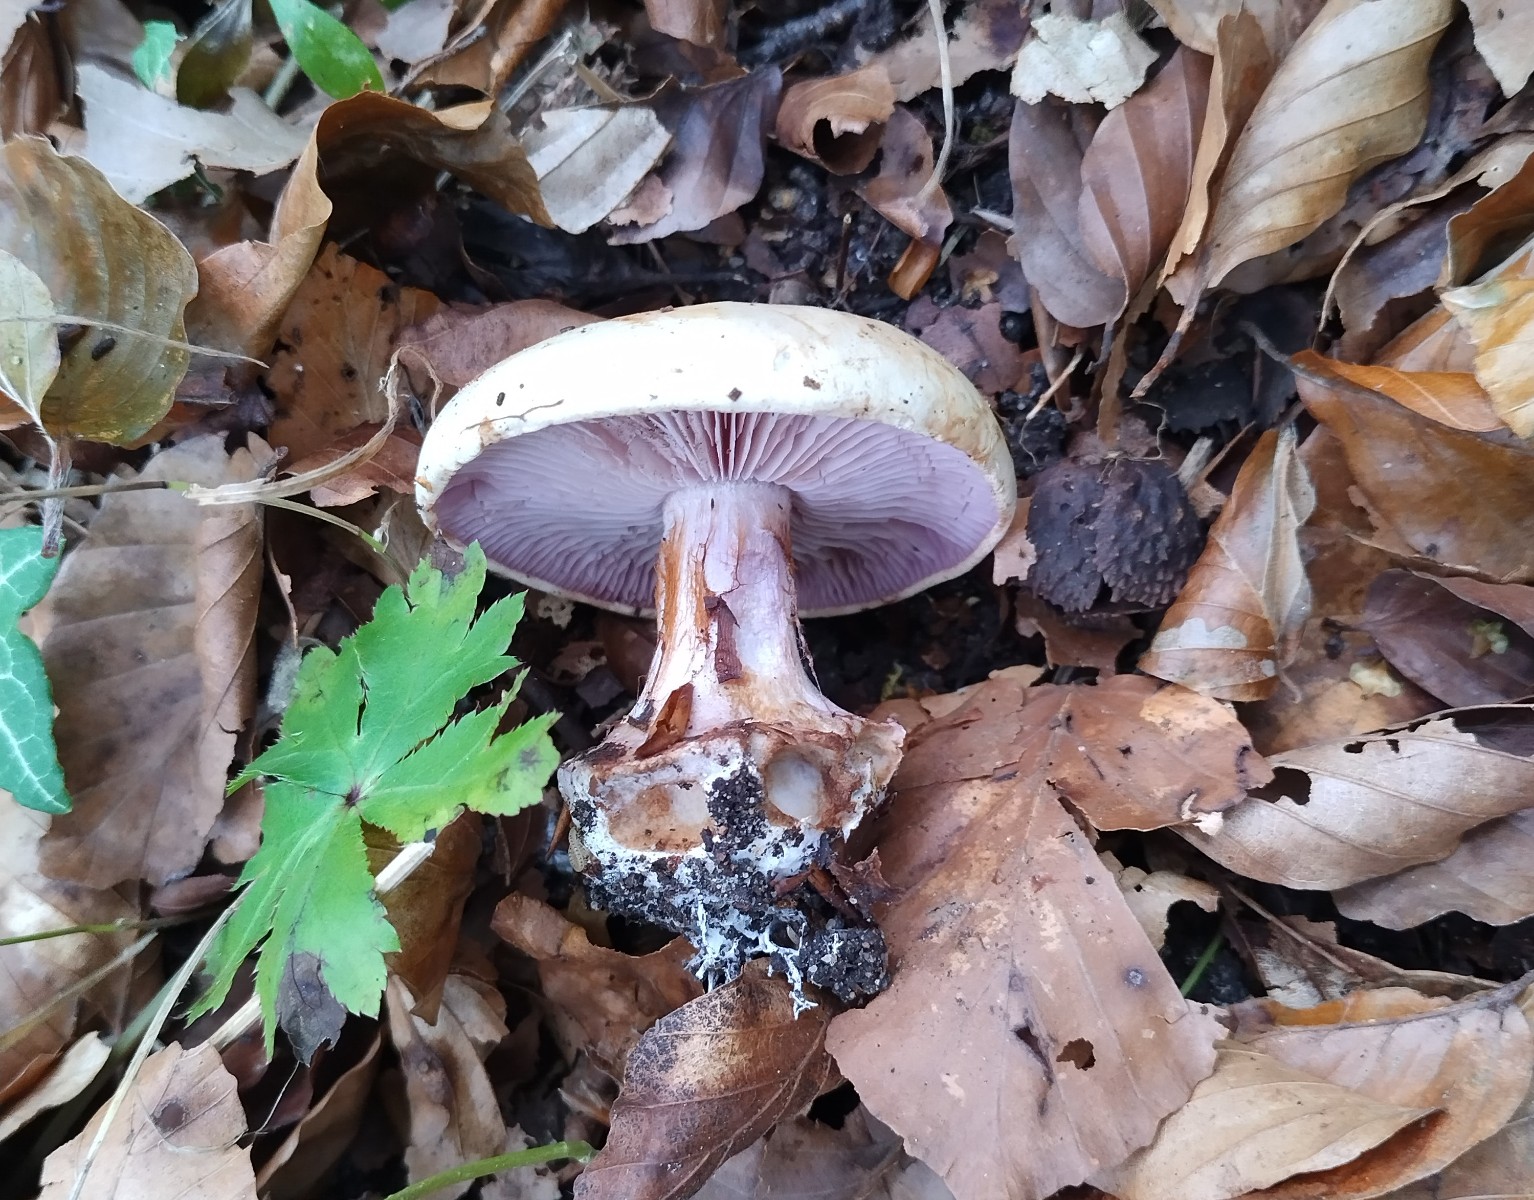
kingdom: Fungi
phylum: Basidiomycota
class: Agaricomycetes
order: Agaricales
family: Cortinariaceae
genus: Calonarius
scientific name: Calonarius catharinae
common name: Katrines slørhat
